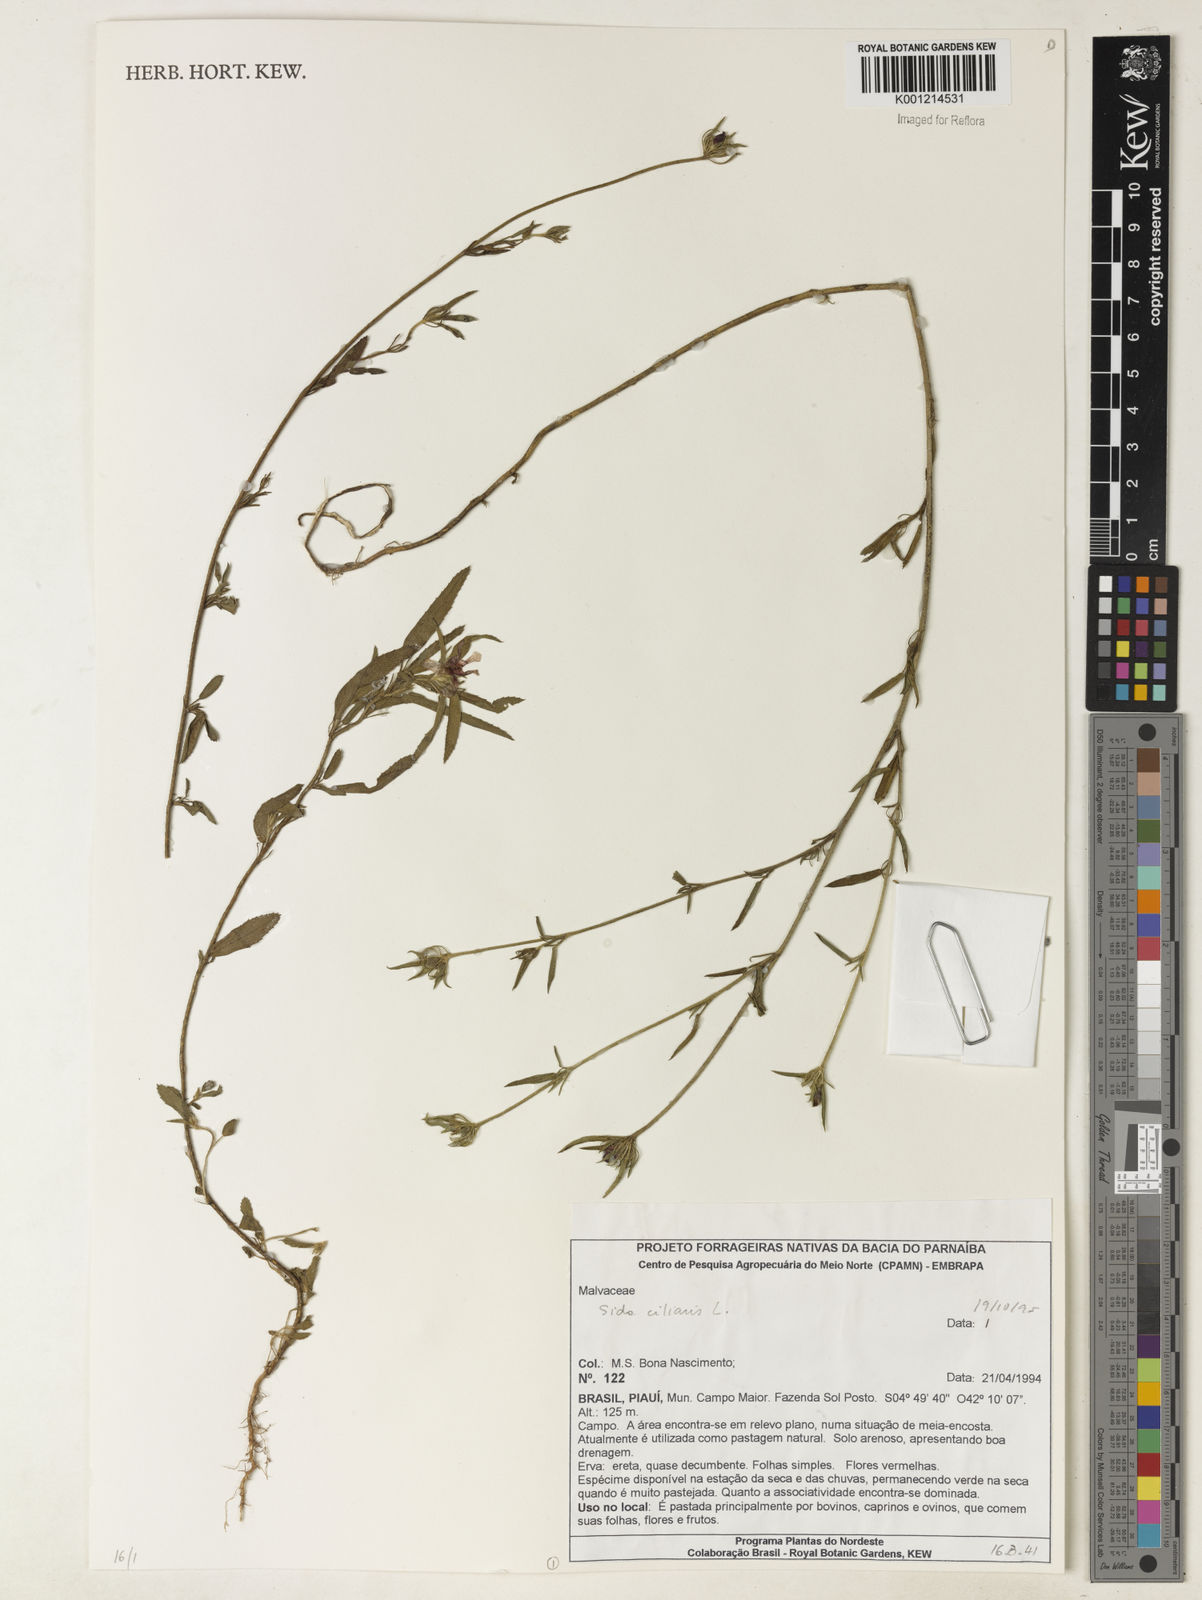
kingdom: Plantae
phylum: Tracheophyta
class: Magnoliopsida
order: Malvales
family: Malvaceae
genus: Sida
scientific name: Sida ciliaris
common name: Bracted fanpetals
